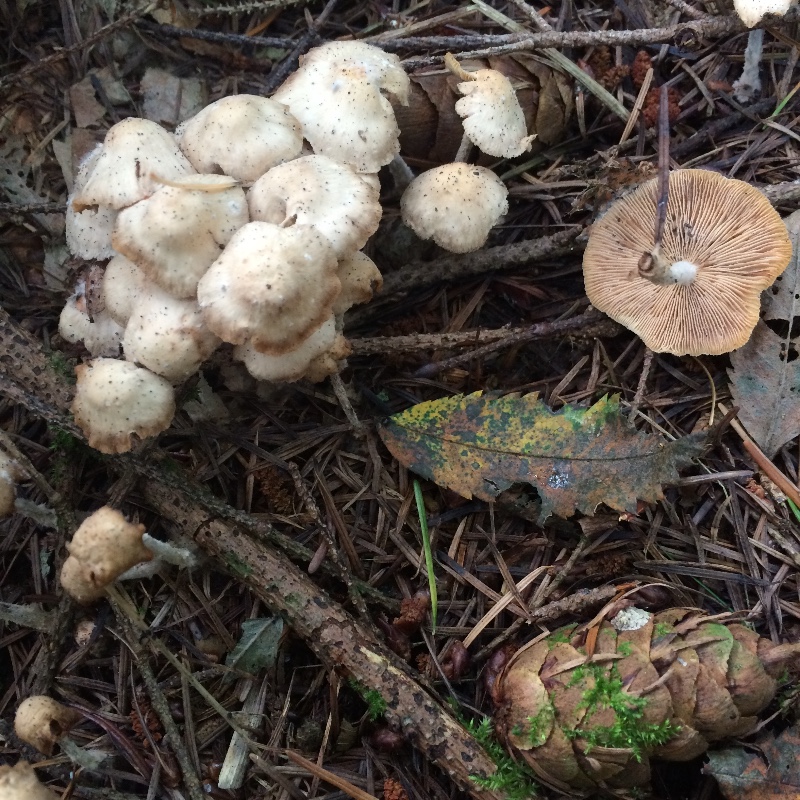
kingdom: Fungi
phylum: Basidiomycota
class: Agaricomycetes
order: Agaricales
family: Omphalotaceae
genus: Collybiopsis
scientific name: Collybiopsis confluens
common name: knippe-fladhat
